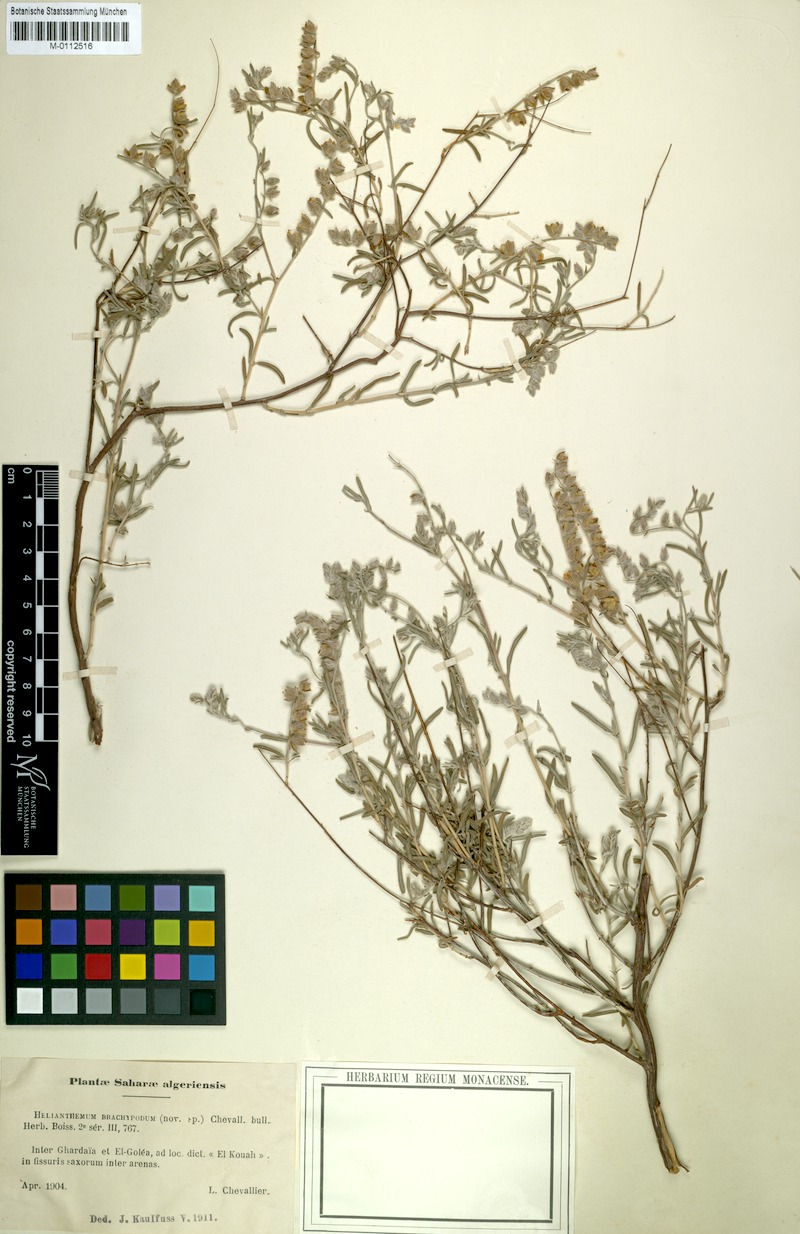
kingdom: Plantae
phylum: Tracheophyta
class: Magnoliopsida
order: Malvales
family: Cistaceae
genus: Helianthemum
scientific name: Helianthemum confertum
